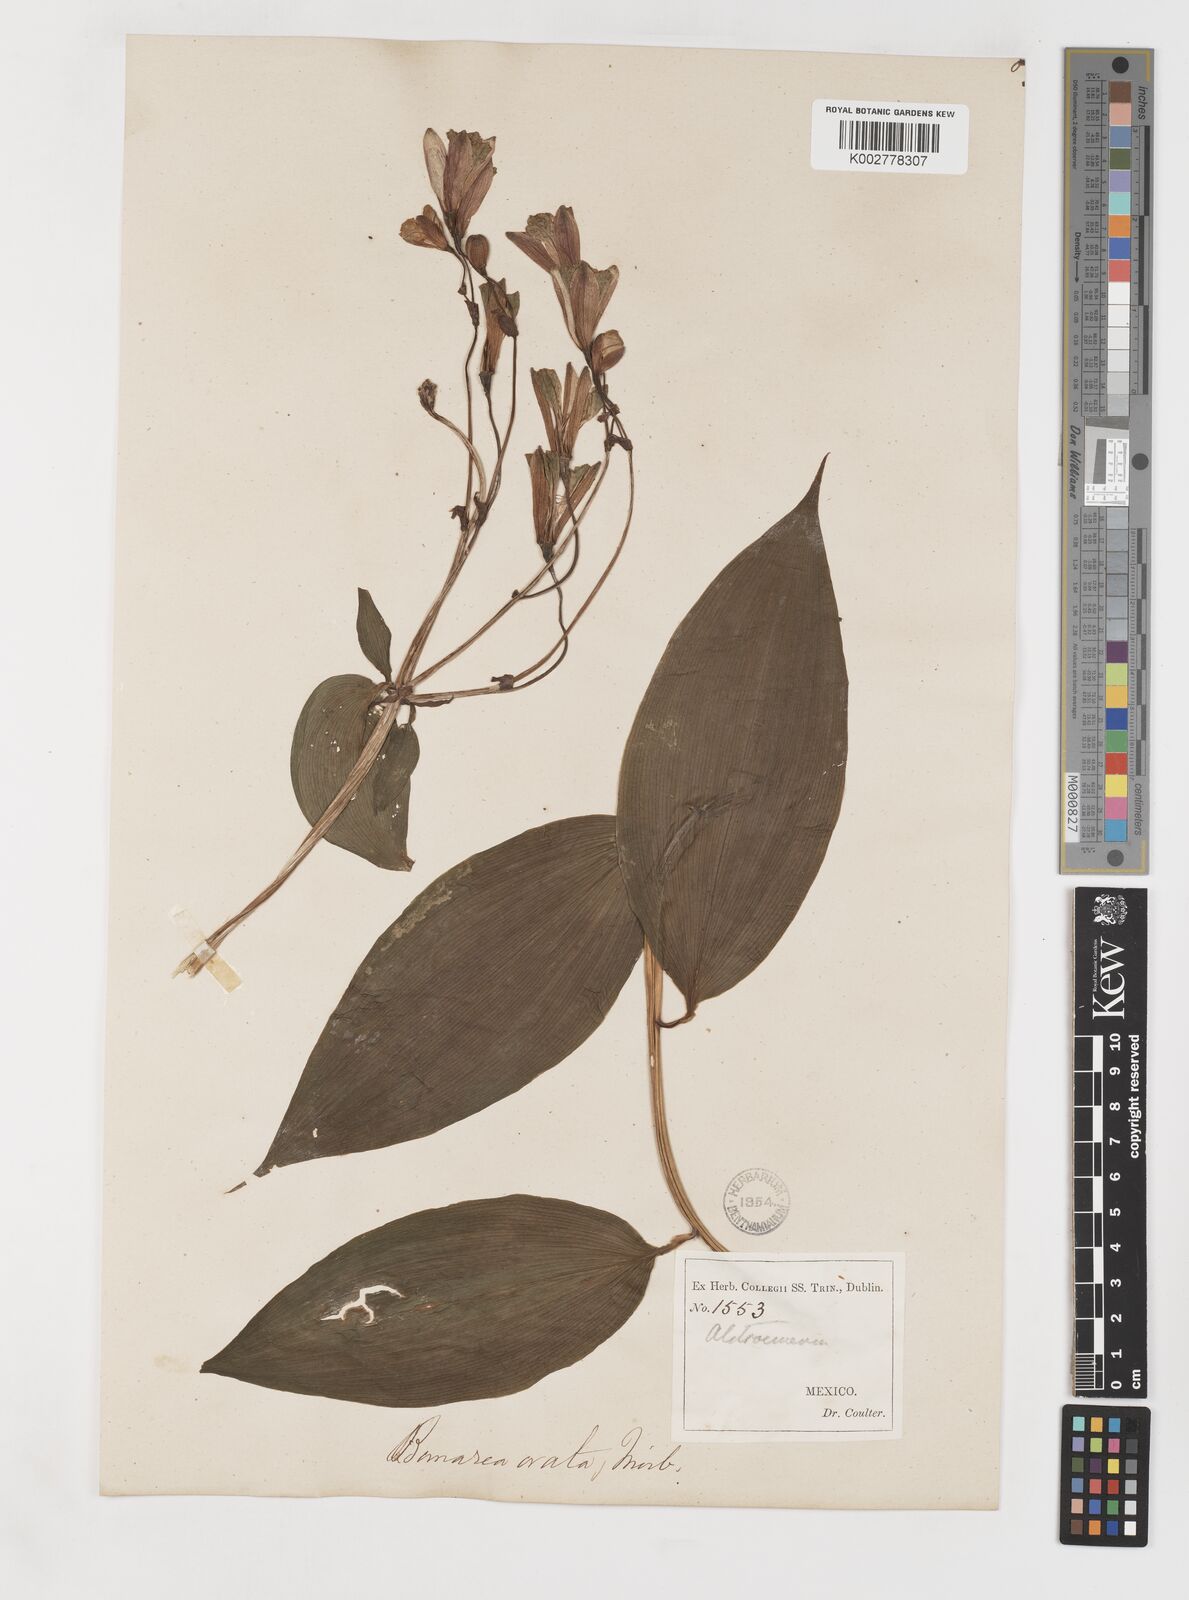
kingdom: Plantae
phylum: Tracheophyta
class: Liliopsida
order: Liliales
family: Alstroemeriaceae
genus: Bomarea
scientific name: Bomarea edulis
